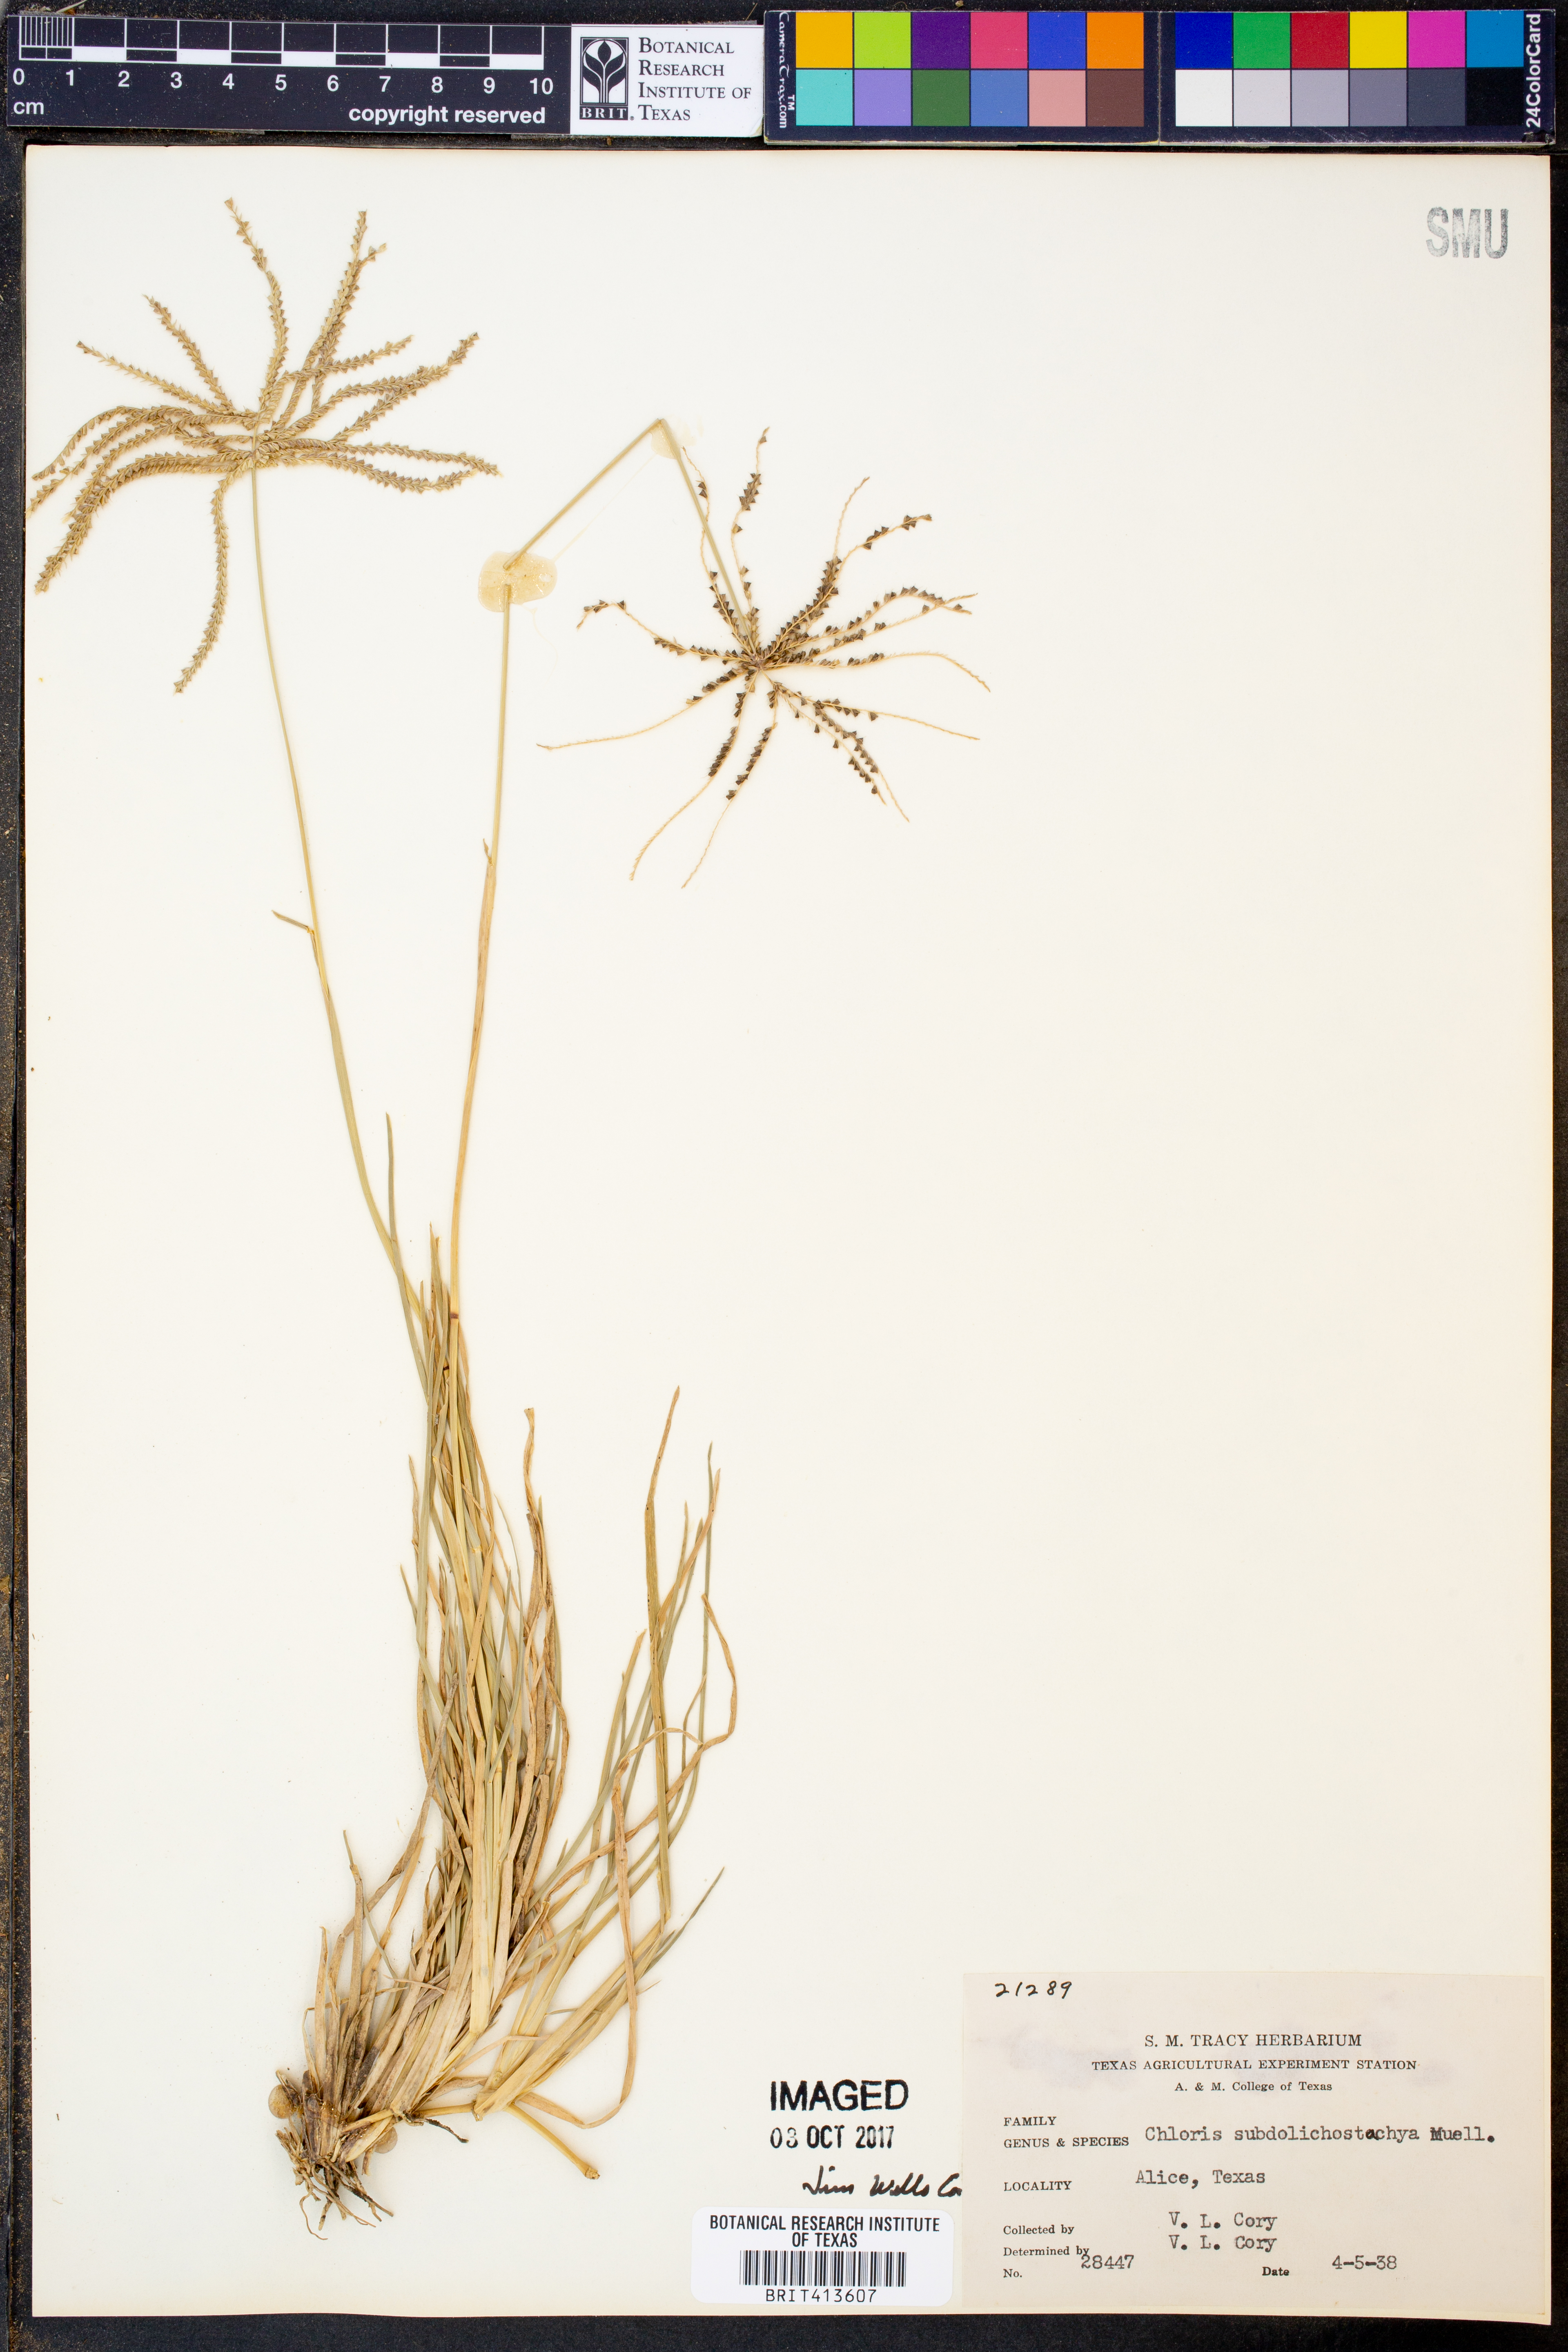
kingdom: Plantae
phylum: Tracheophyta
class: Liliopsida
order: Poales
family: Poaceae
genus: Chloris
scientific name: Chloris subdolichostachya
